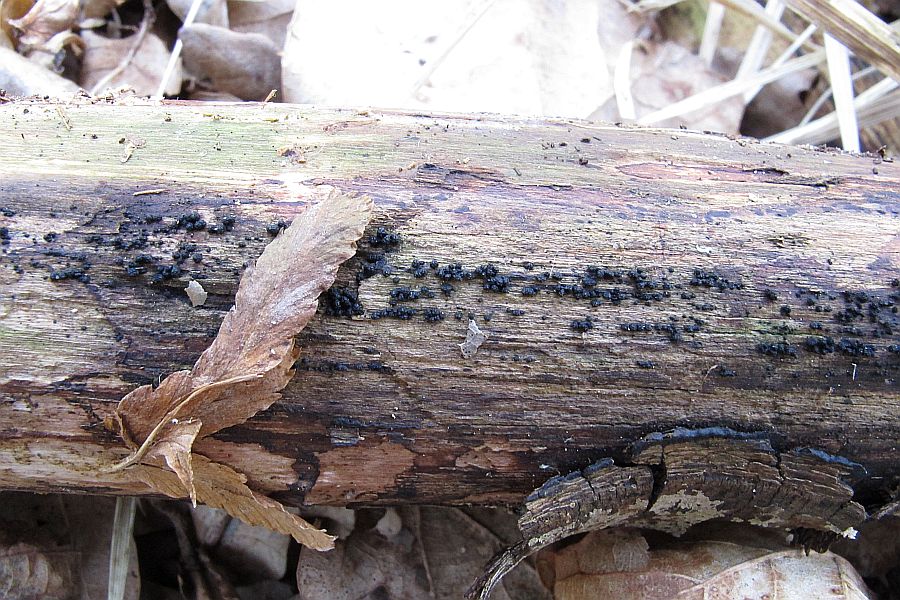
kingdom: Fungi
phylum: Ascomycota
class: Dothideomycetes
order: Pleosporales
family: Melanommataceae
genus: Melanomma
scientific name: Melanomma pulvis-pyrius
